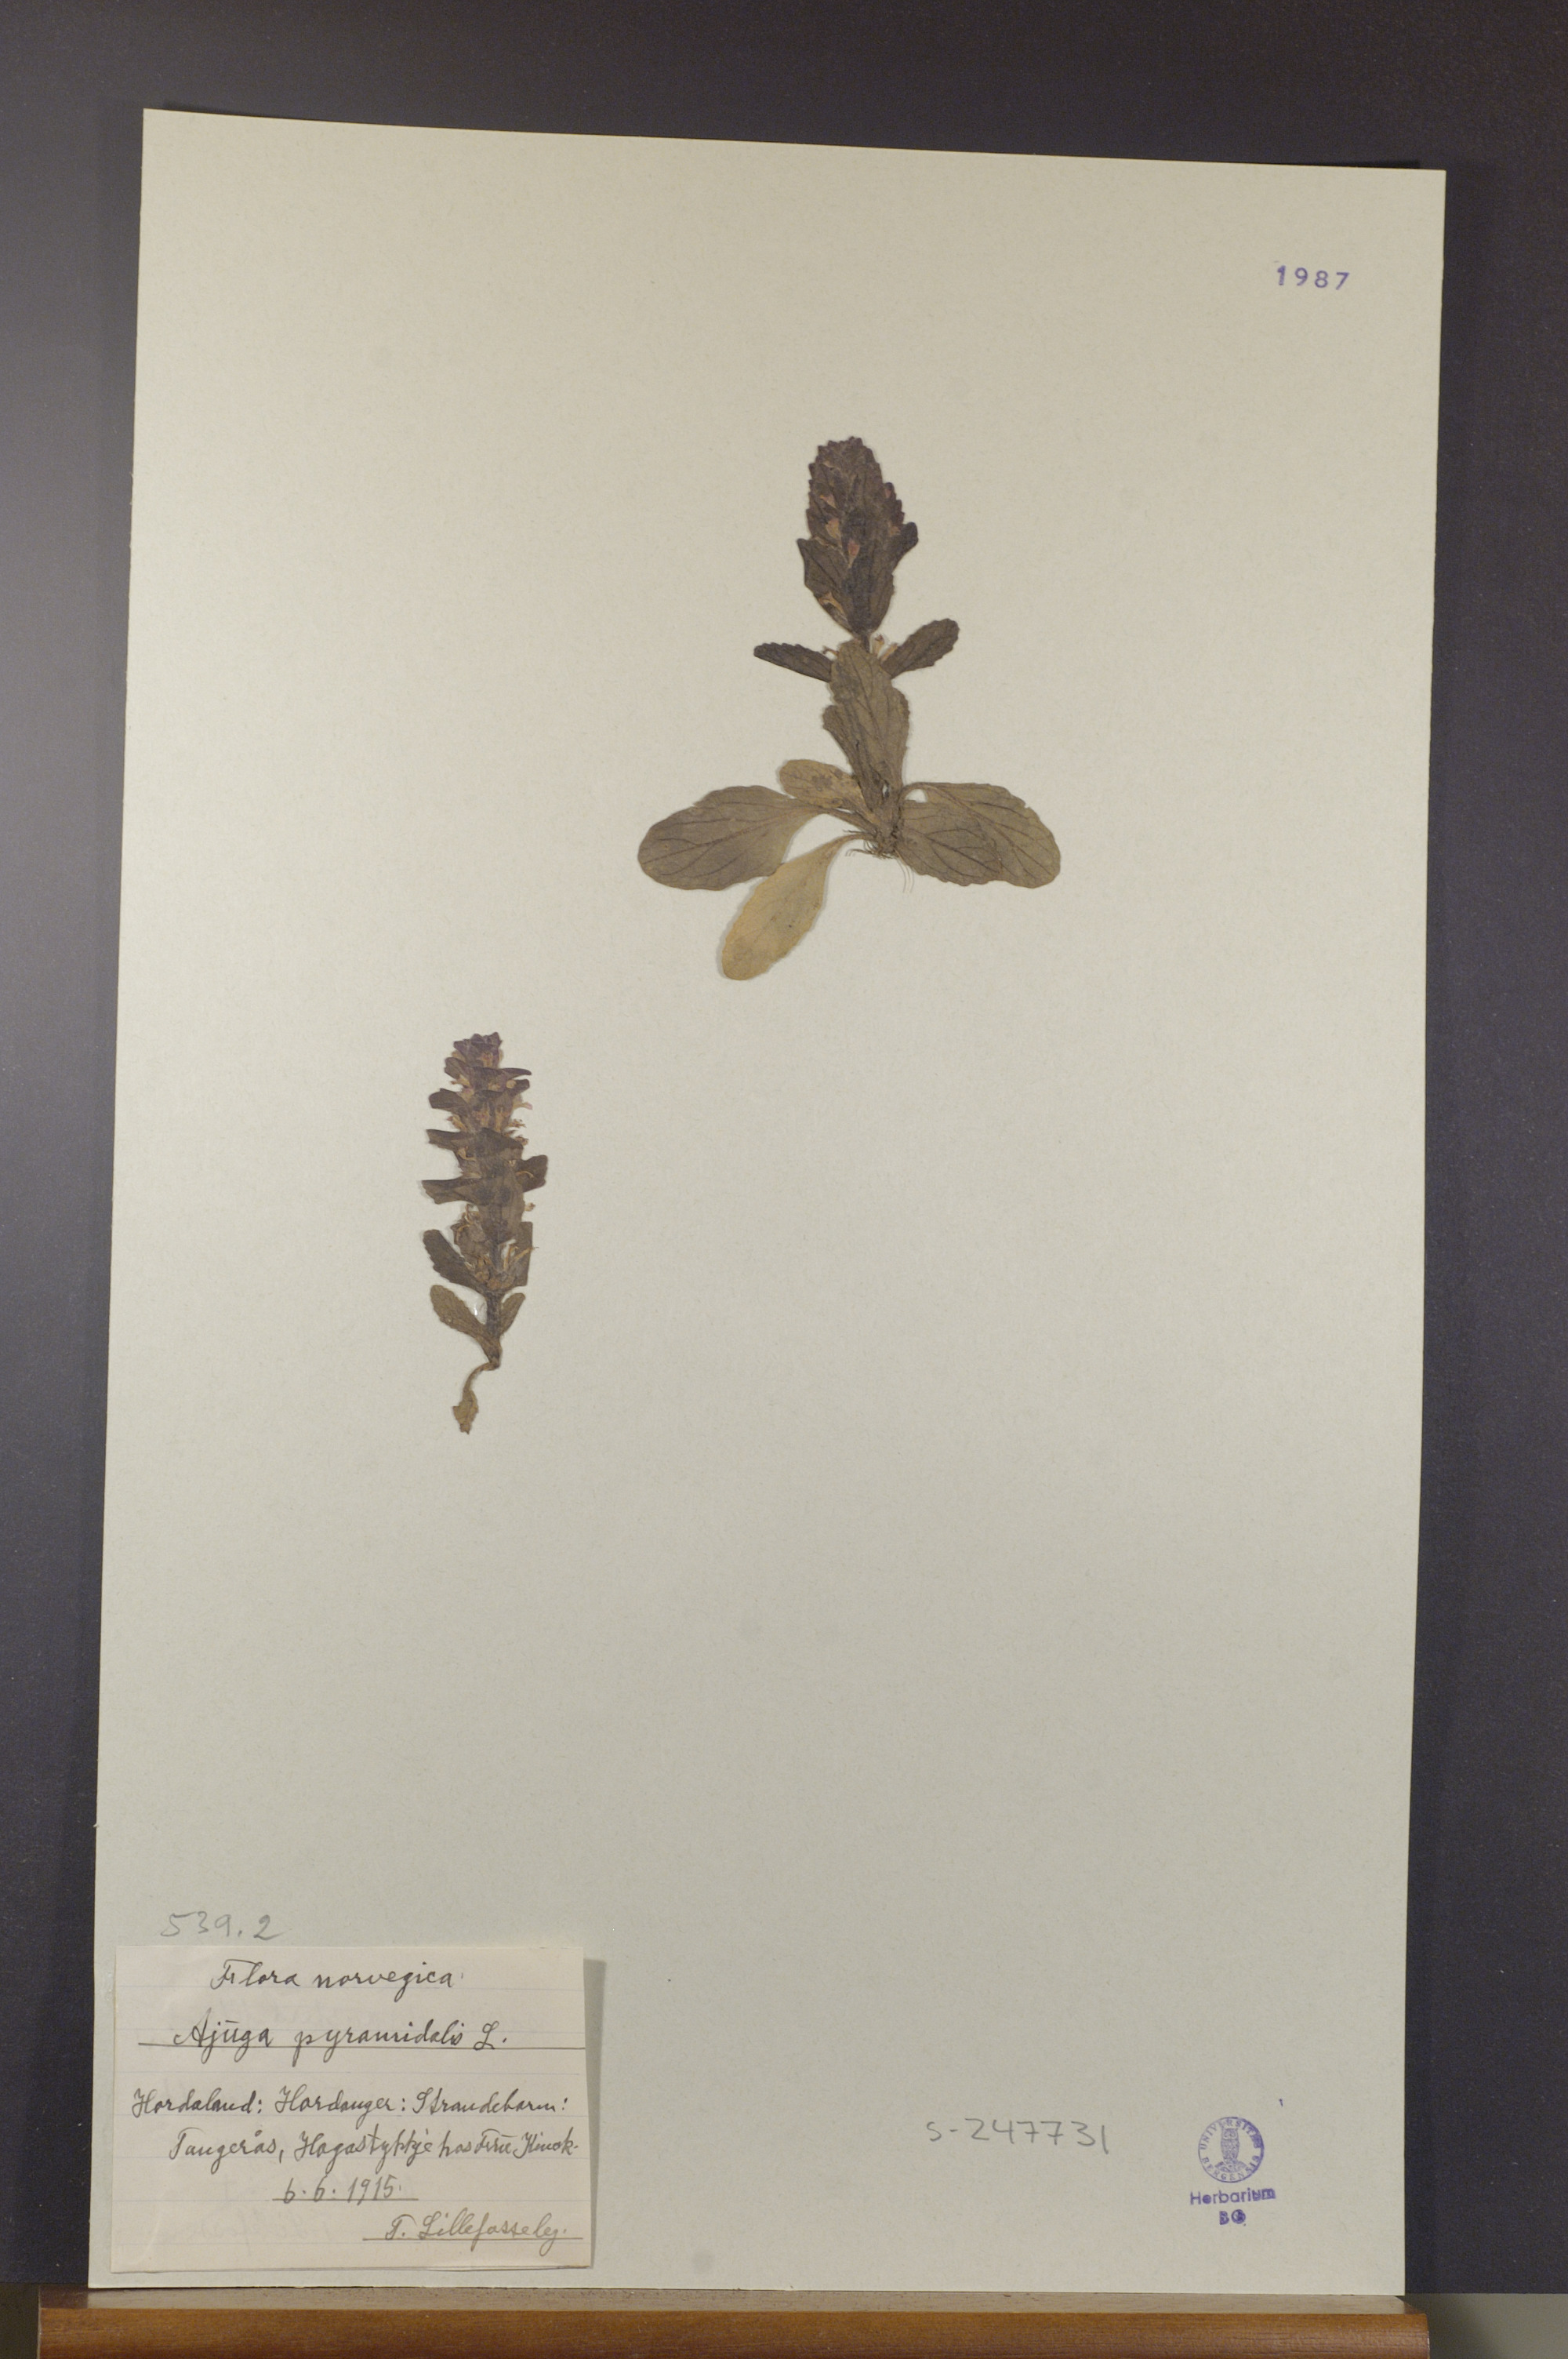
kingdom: Plantae
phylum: Tracheophyta
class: Magnoliopsida
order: Lamiales
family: Lamiaceae
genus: Ajuga
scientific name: Ajuga pyramidalis
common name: Pyramid bugle
